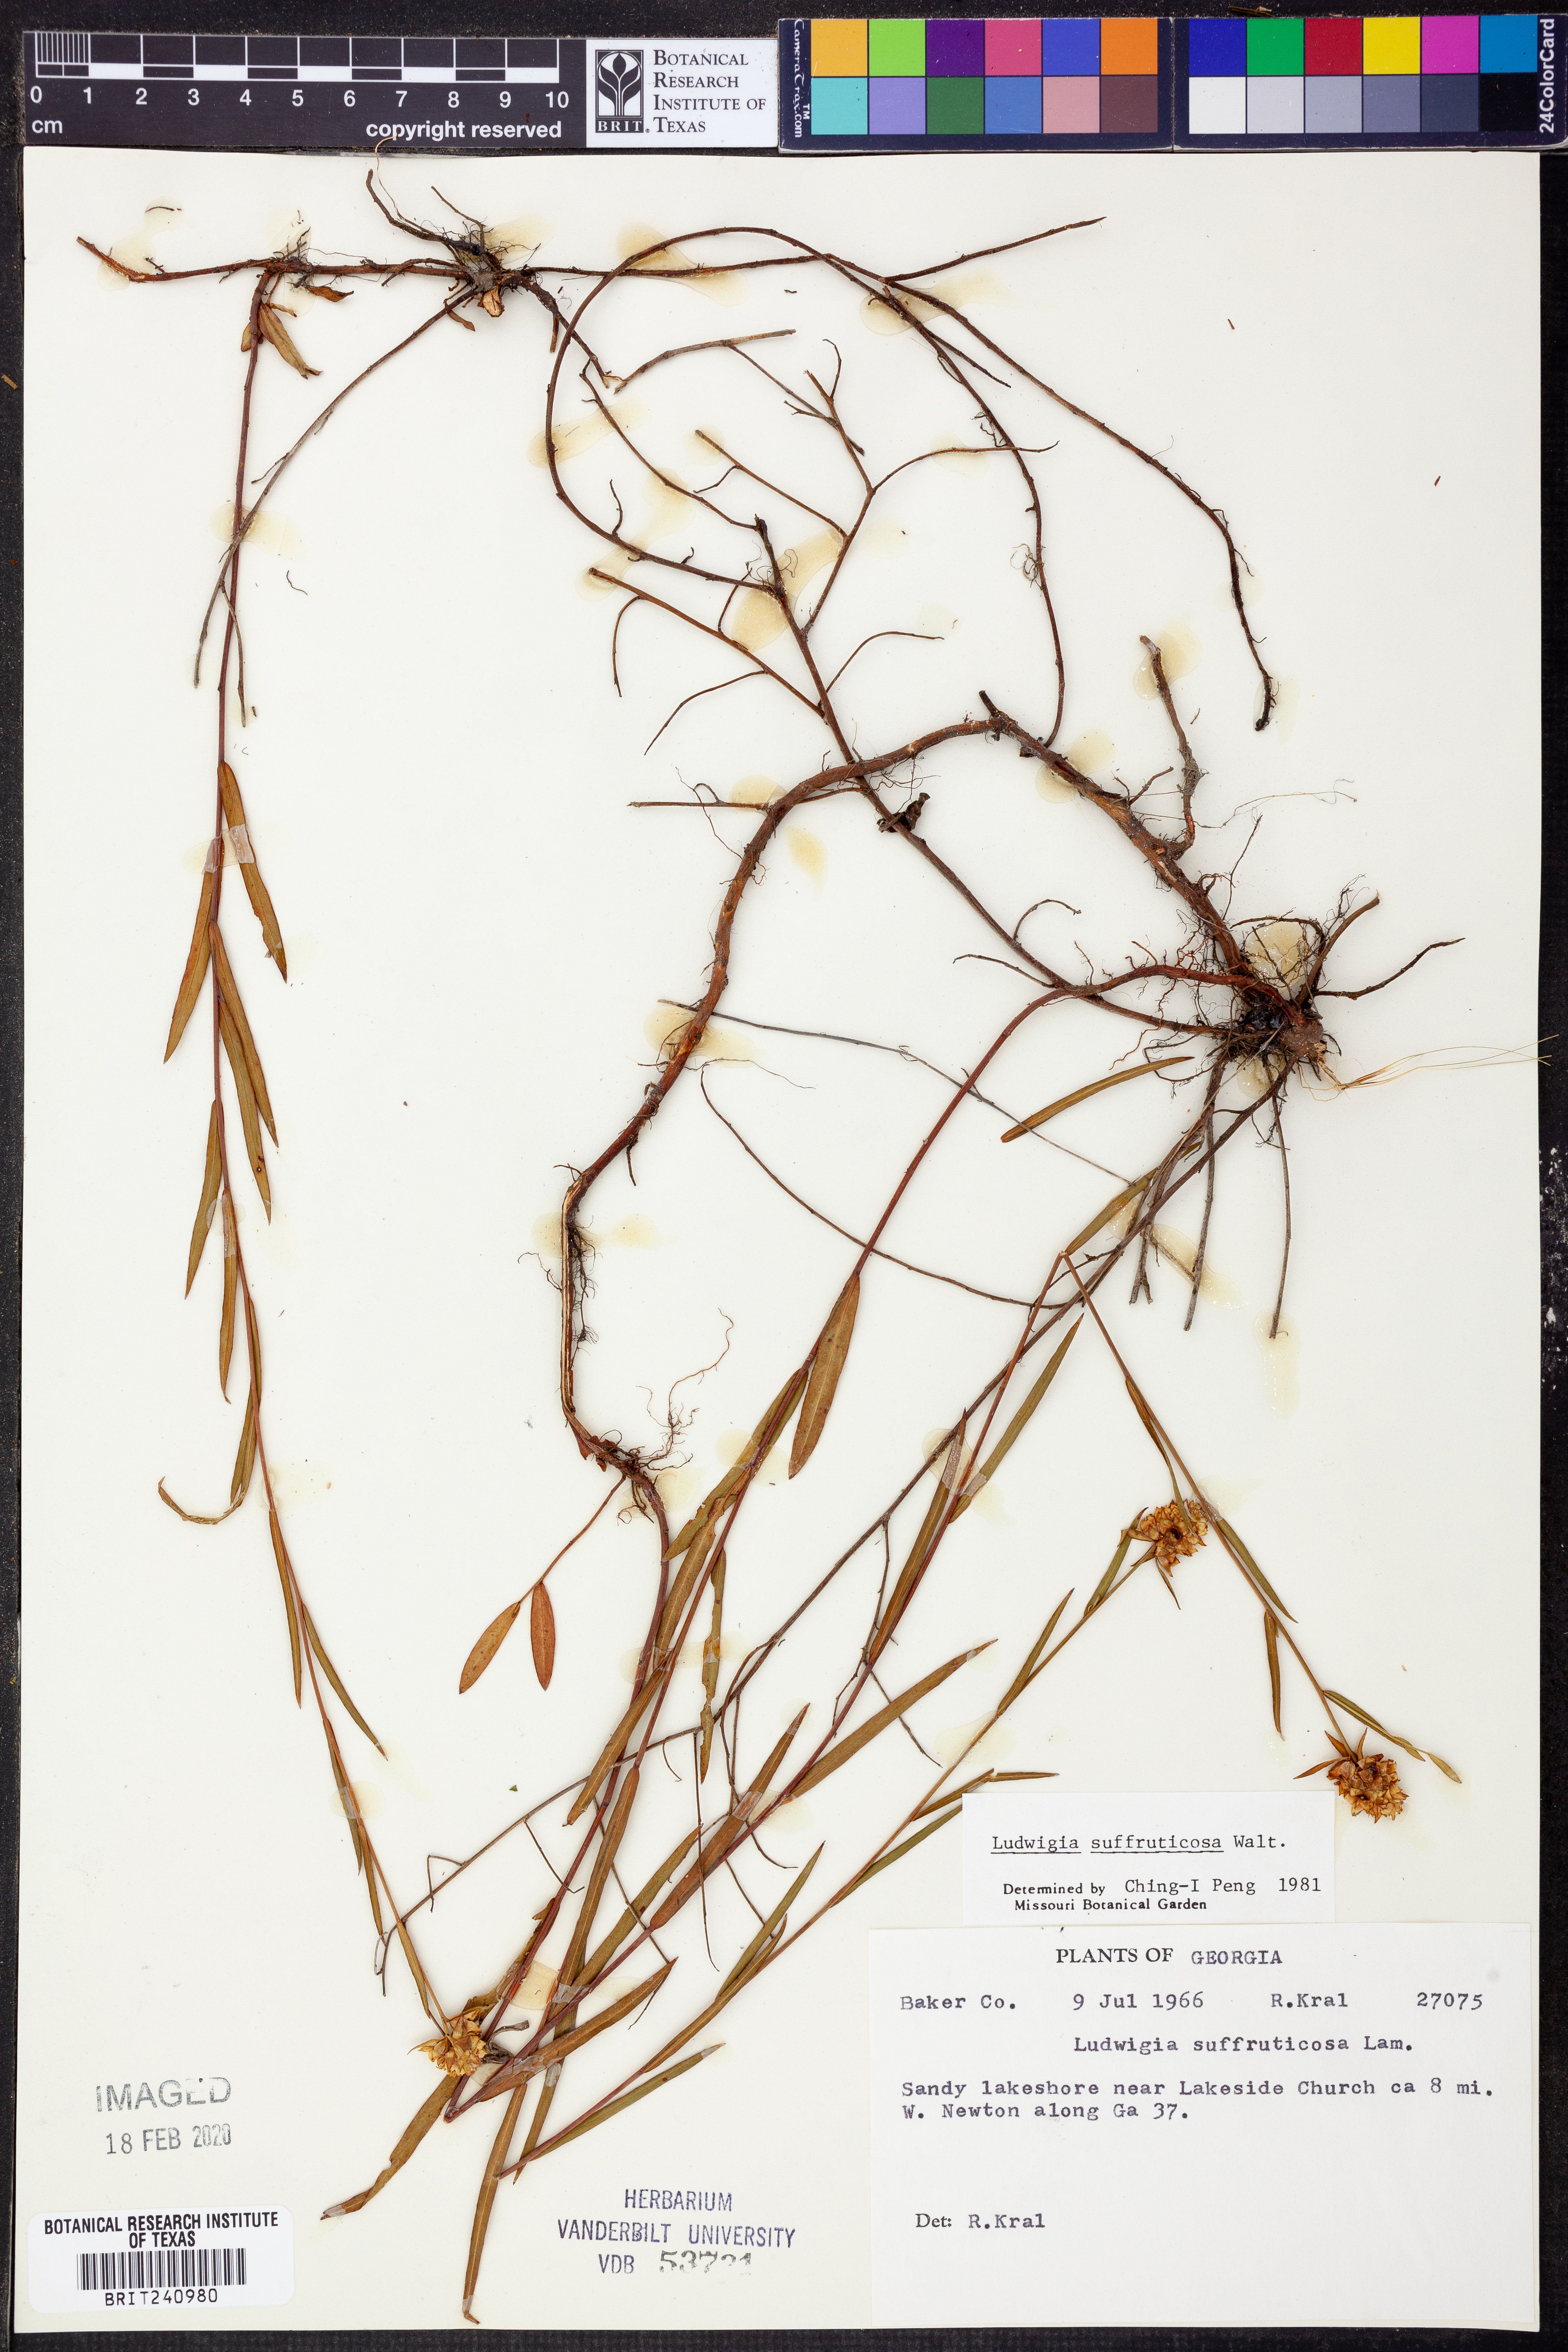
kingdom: Plantae
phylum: Tracheophyta
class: Magnoliopsida
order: Myrtales
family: Onagraceae
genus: Ludwigia
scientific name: Ludwigia suffruticosa
